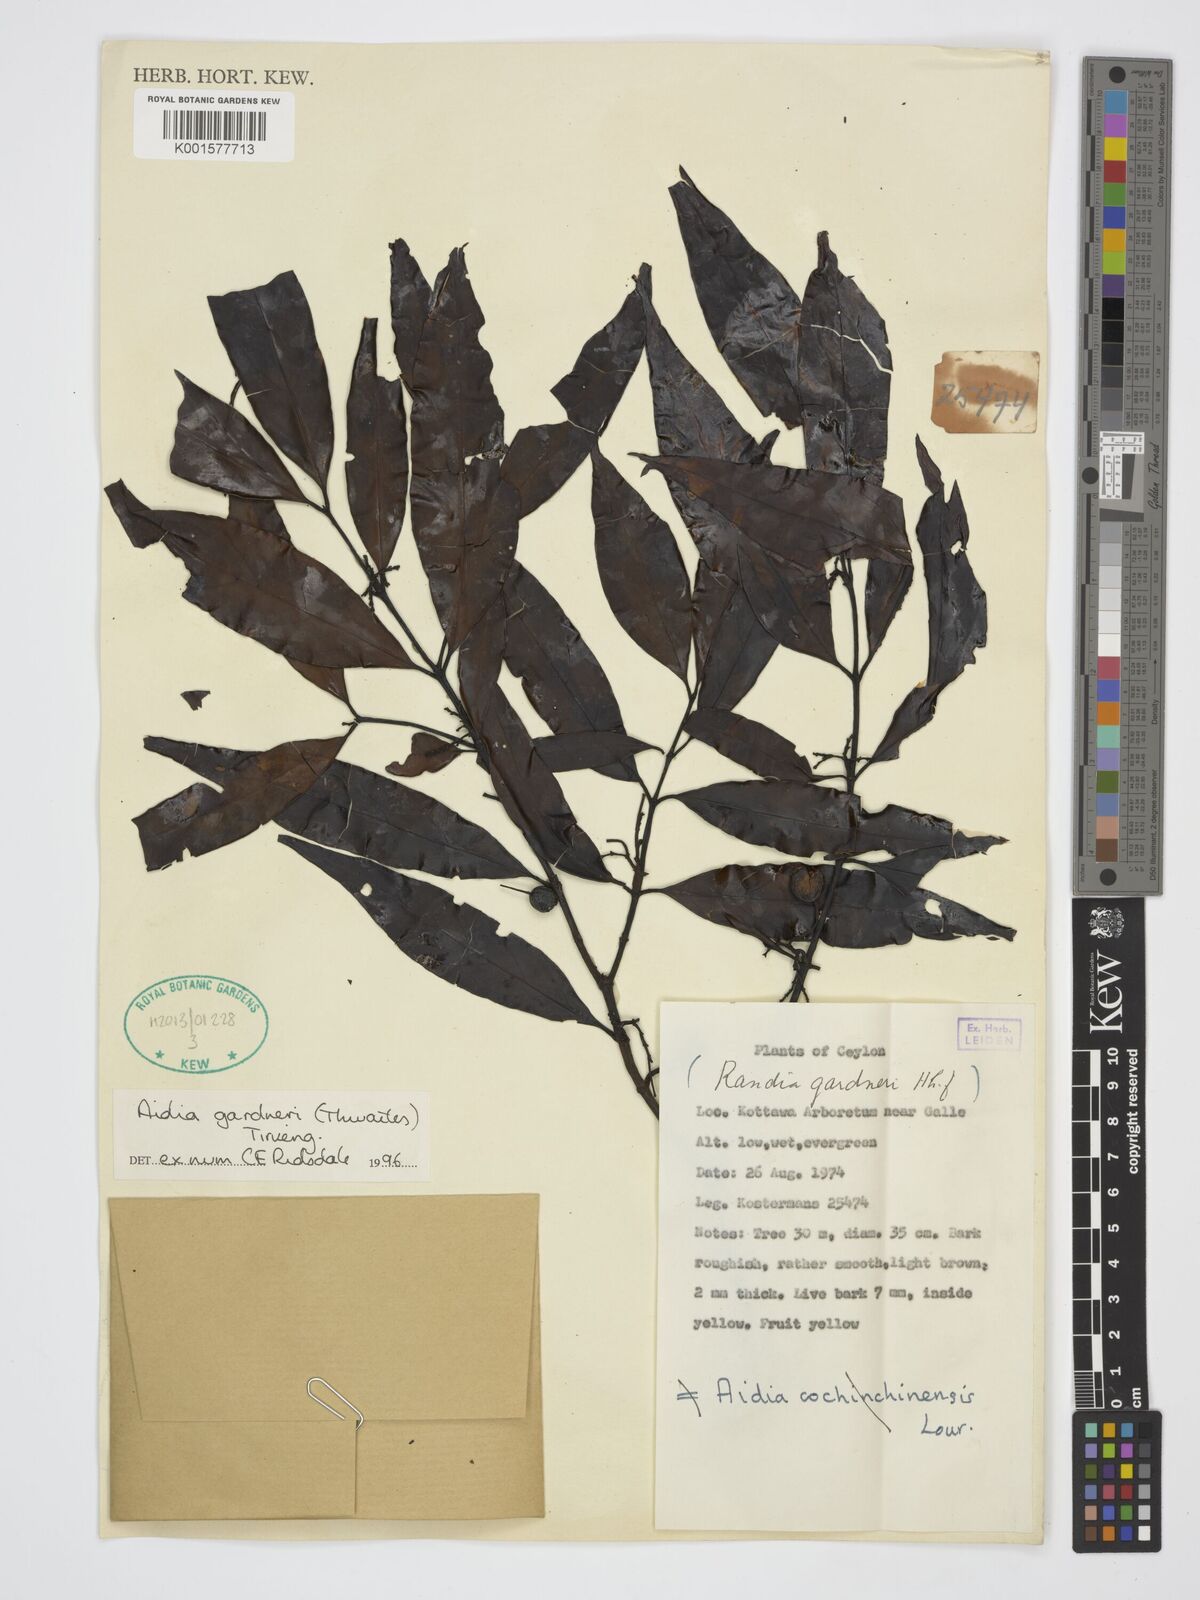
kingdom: Plantae
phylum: Tracheophyta
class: Magnoliopsida
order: Gentianales
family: Rubiaceae
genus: Aidia
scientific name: Aidia gardneri
